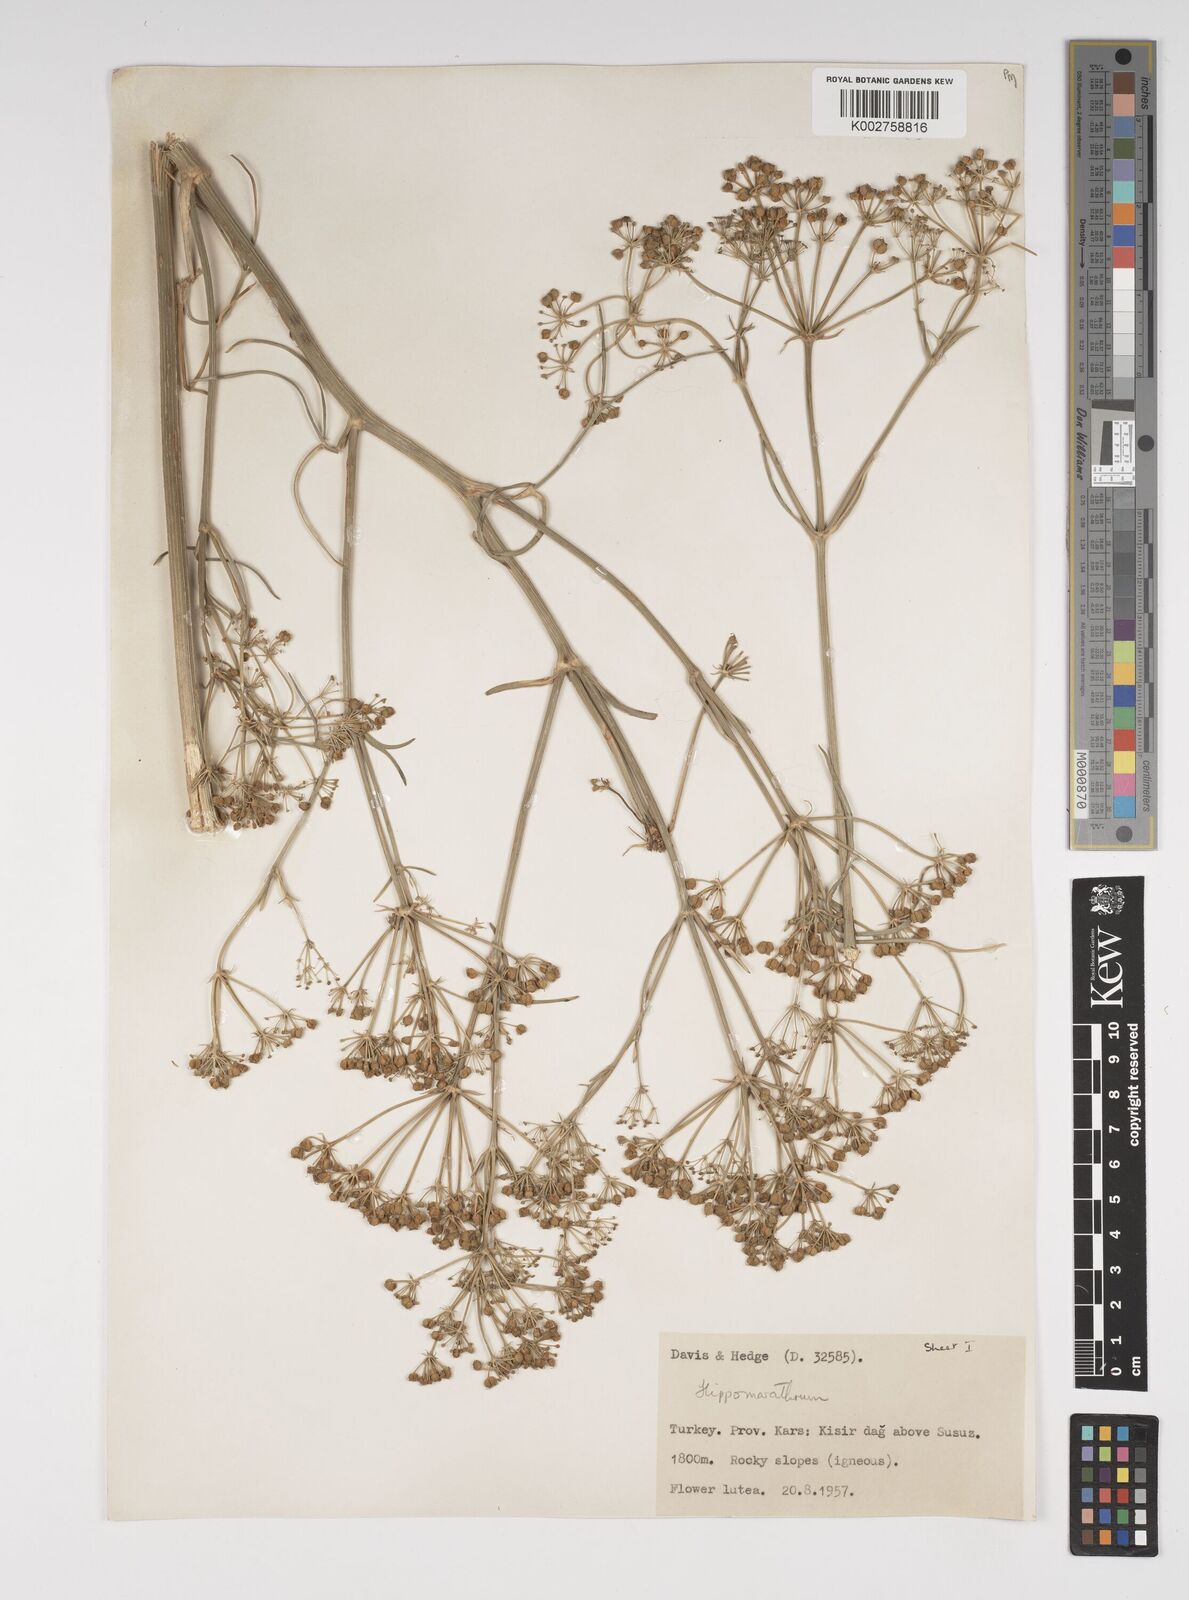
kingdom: Plantae
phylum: Tracheophyta
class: Magnoliopsida
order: Apiales
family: Apiaceae
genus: Bilacunaria
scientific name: Bilacunaria microcarpa
